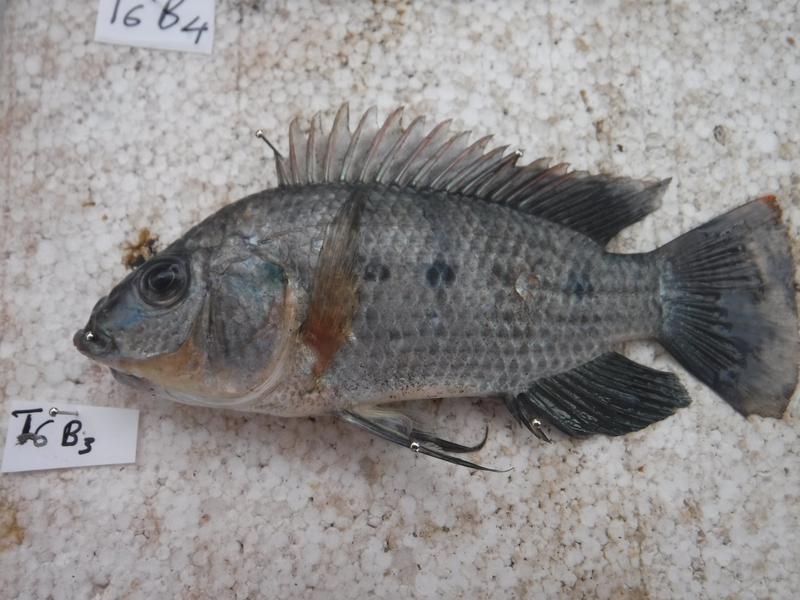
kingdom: Animalia
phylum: Chordata
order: Perciformes
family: Cichlidae
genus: Oreochromis
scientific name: Oreochromis urolepis
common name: Wami tilapia
